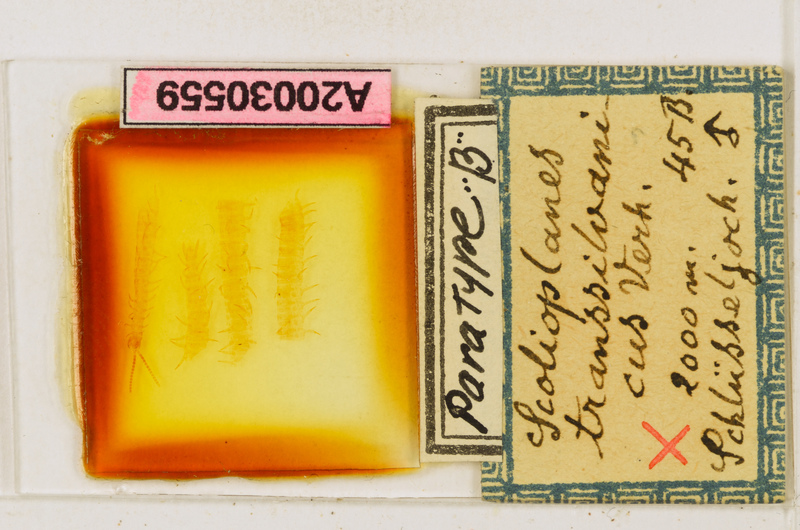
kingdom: Animalia
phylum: Arthropoda
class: Chilopoda
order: Geophilomorpha
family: Linotaeniidae
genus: Strigamia
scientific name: Strigamia transsilvanica
